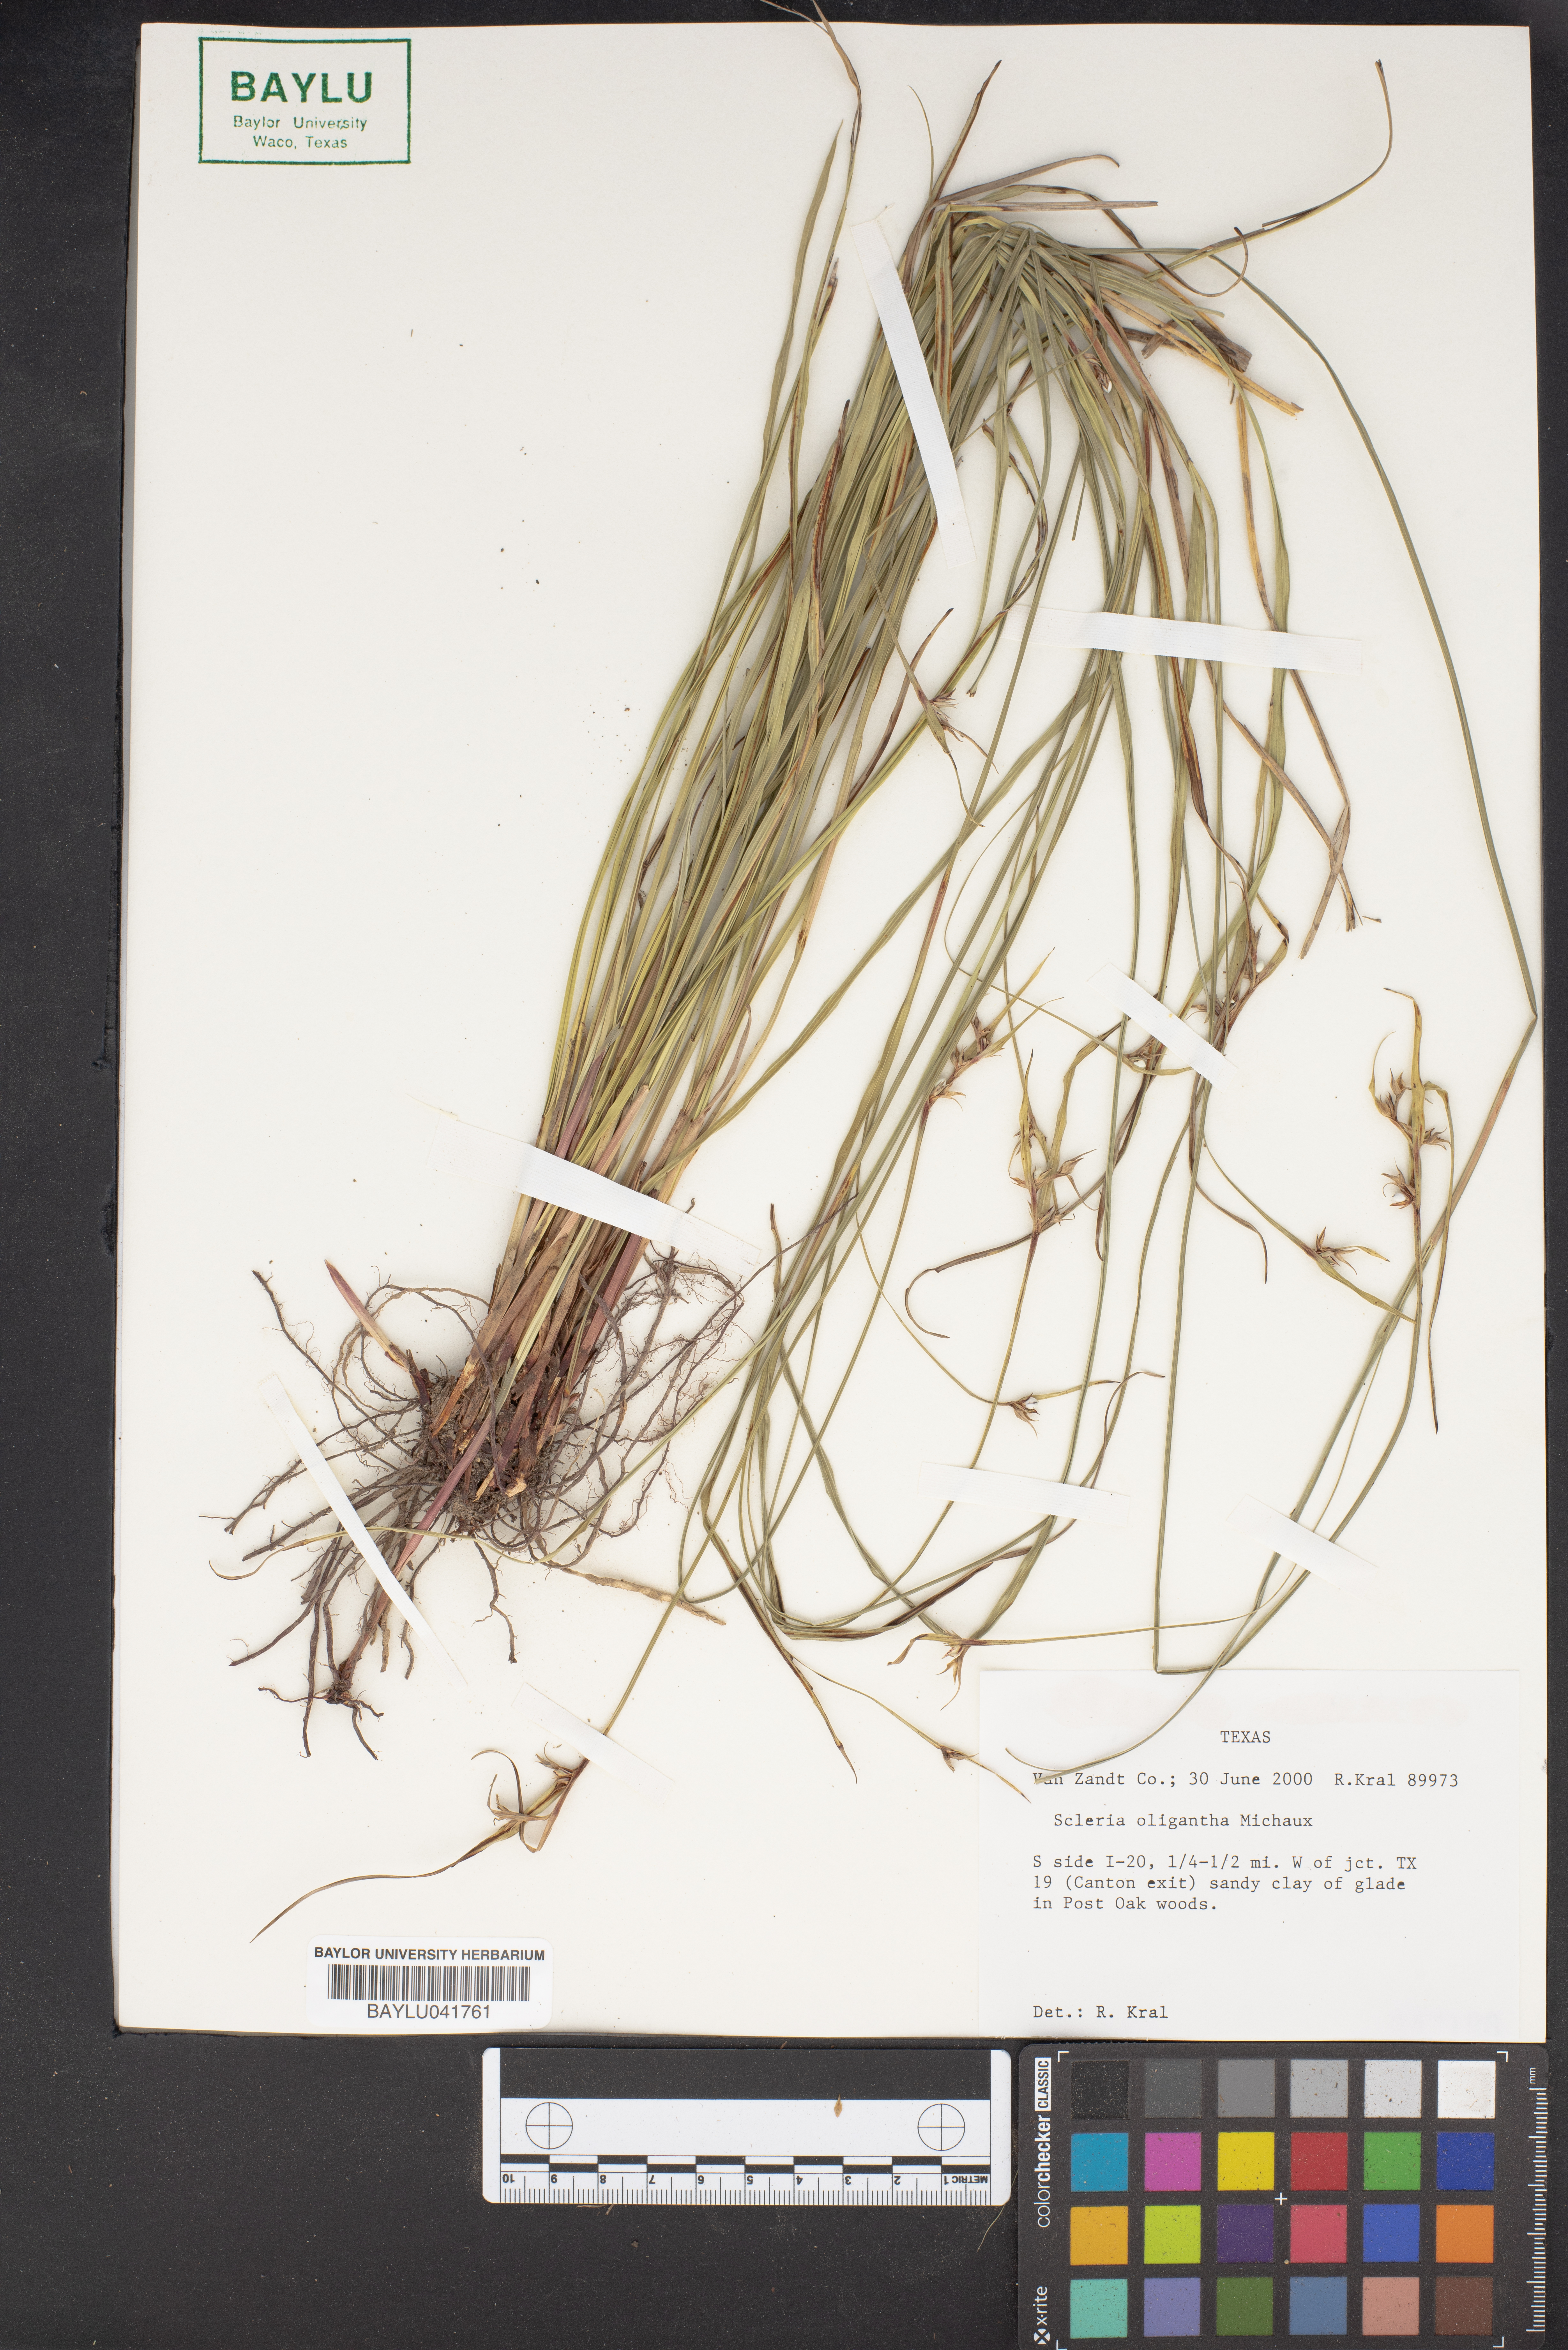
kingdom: Plantae
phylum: Tracheophyta
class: Liliopsida
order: Poales
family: Cyperaceae
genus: Scleria
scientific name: Scleria oligantha
